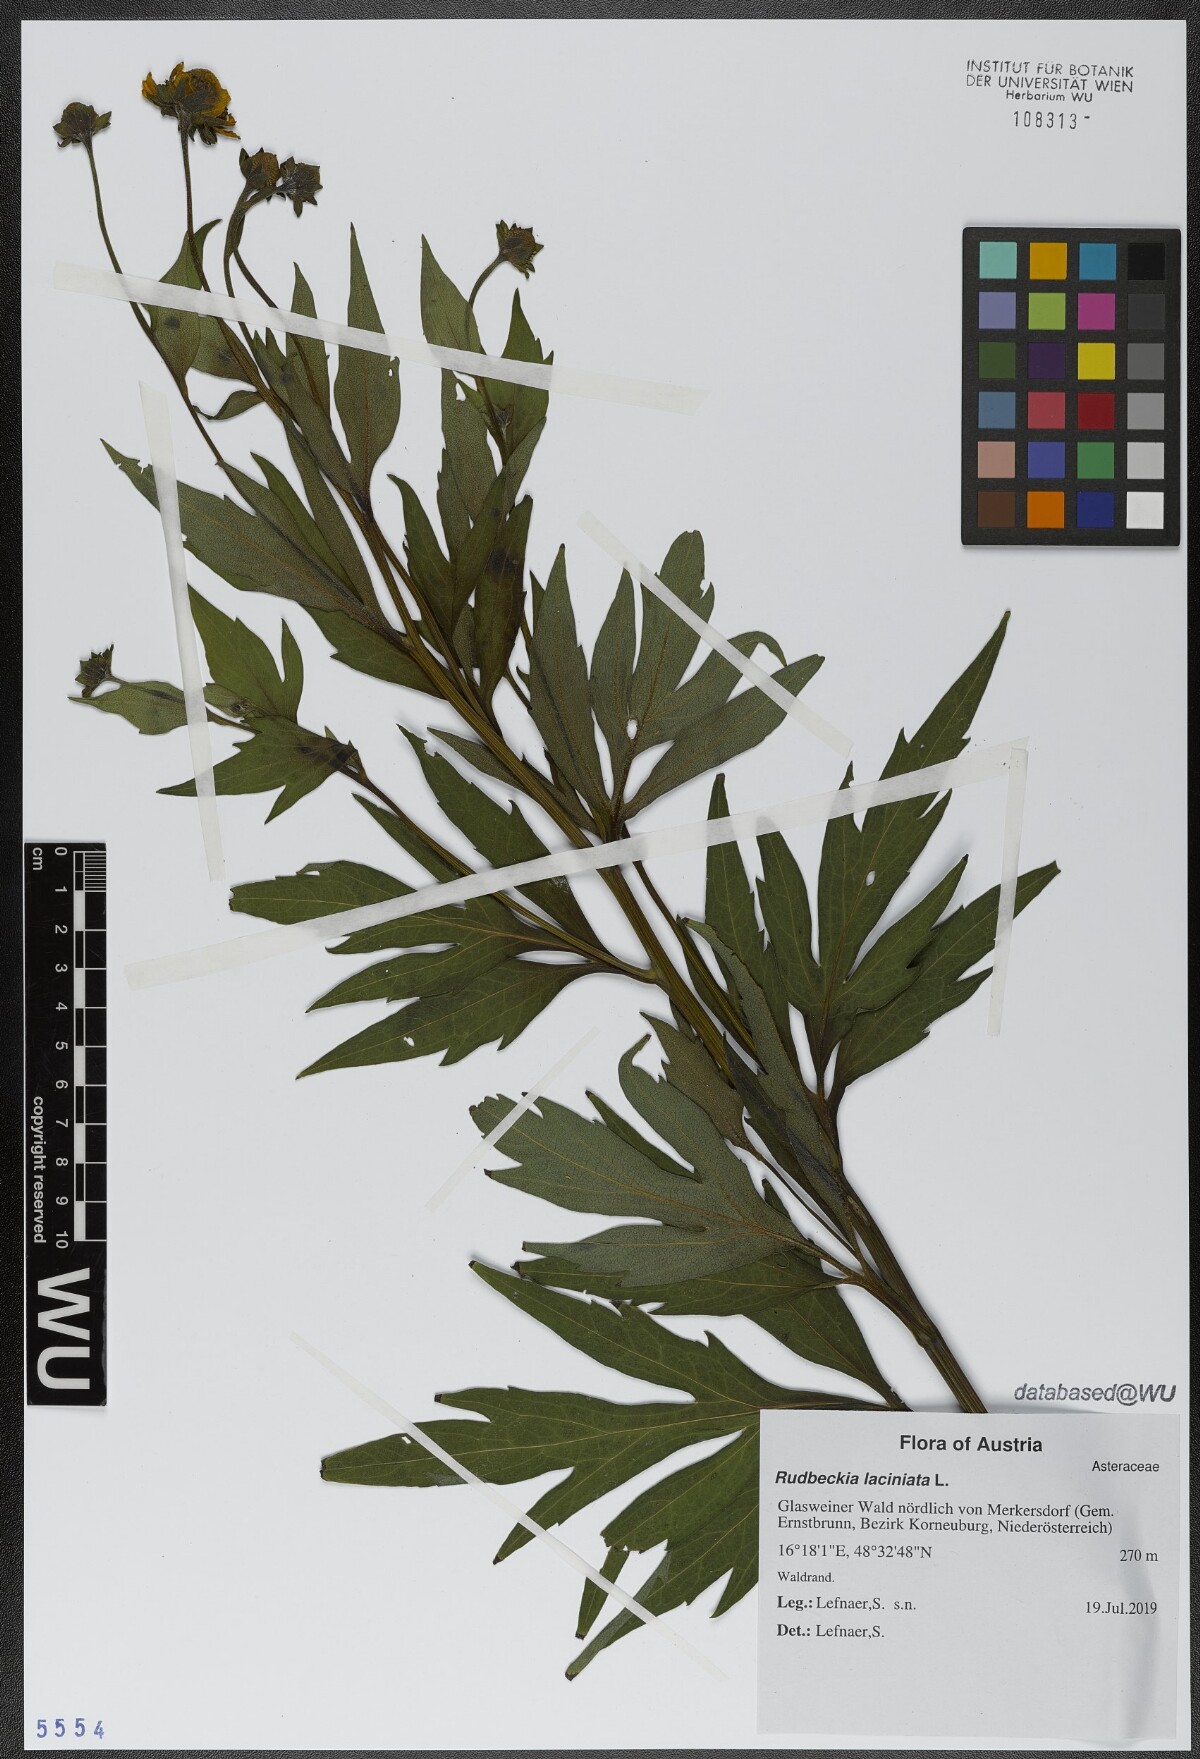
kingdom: Plantae
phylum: Tracheophyta
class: Magnoliopsida
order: Asterales
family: Asteraceae
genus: Rudbeckia
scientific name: Rudbeckia laciniata
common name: Coneflower
